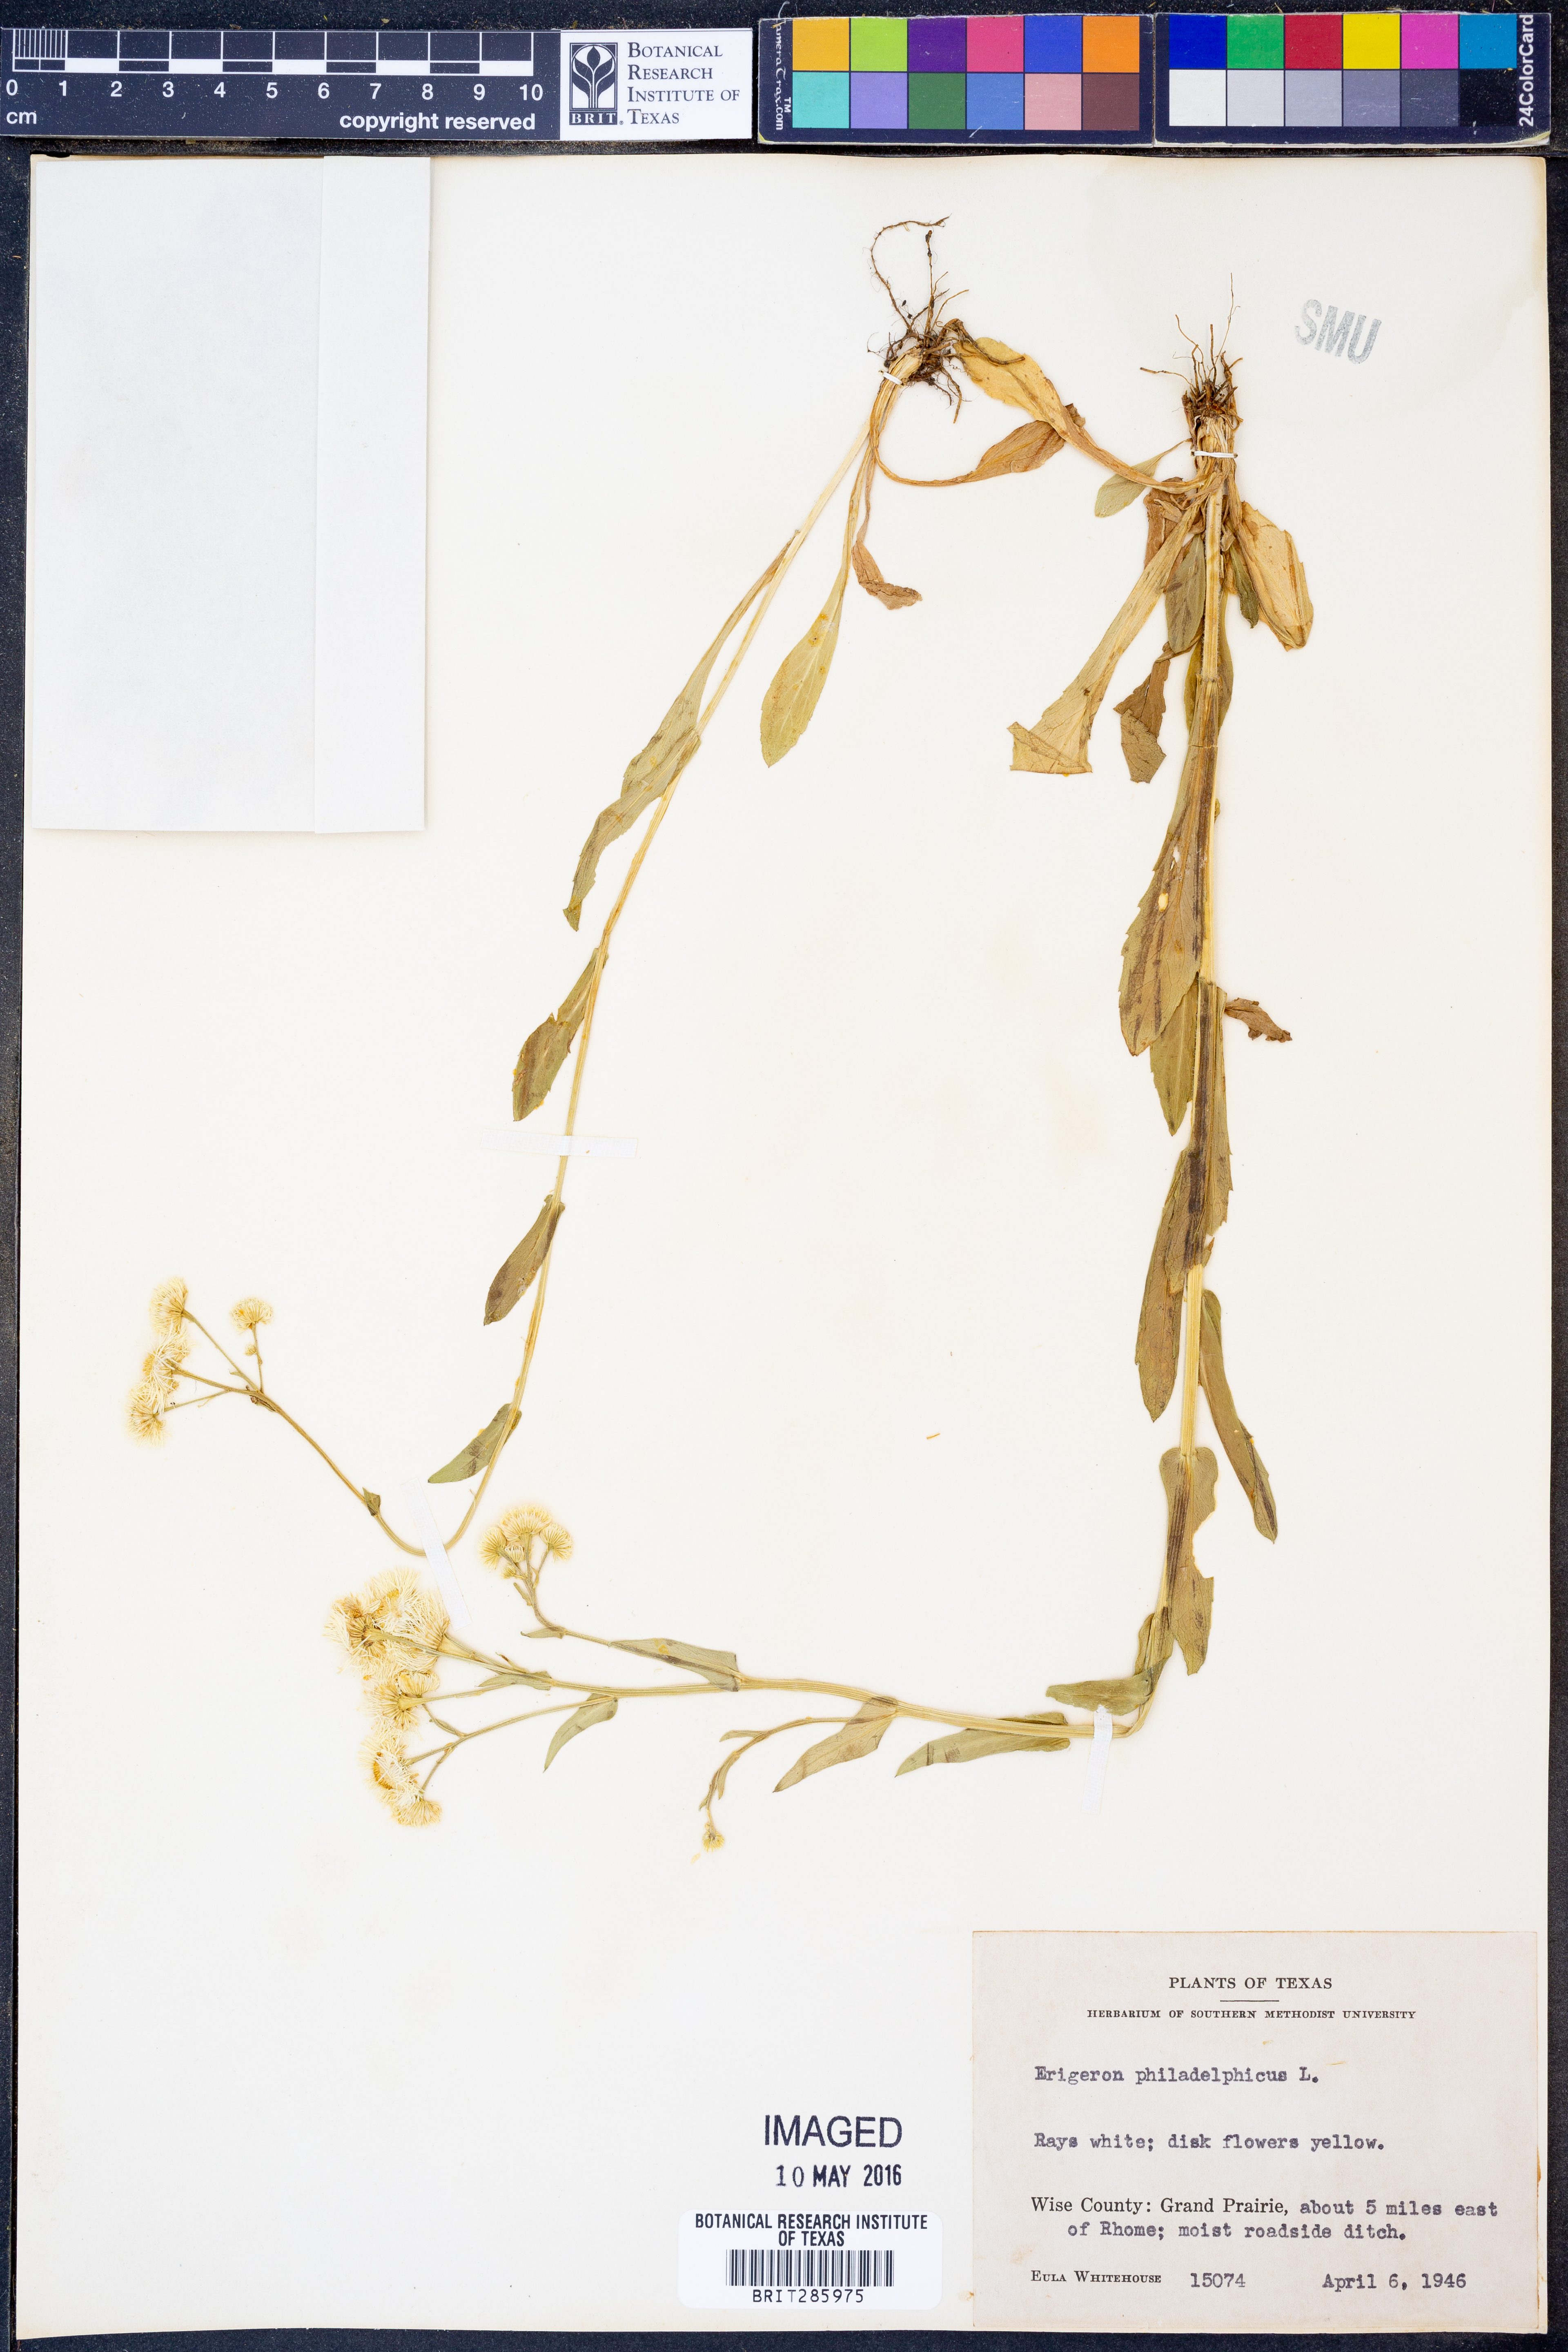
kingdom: Plantae
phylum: Tracheophyta
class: Magnoliopsida
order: Asterales
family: Asteraceae
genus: Erigeron
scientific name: Erigeron philadelphicus
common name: Robin's-plantain
